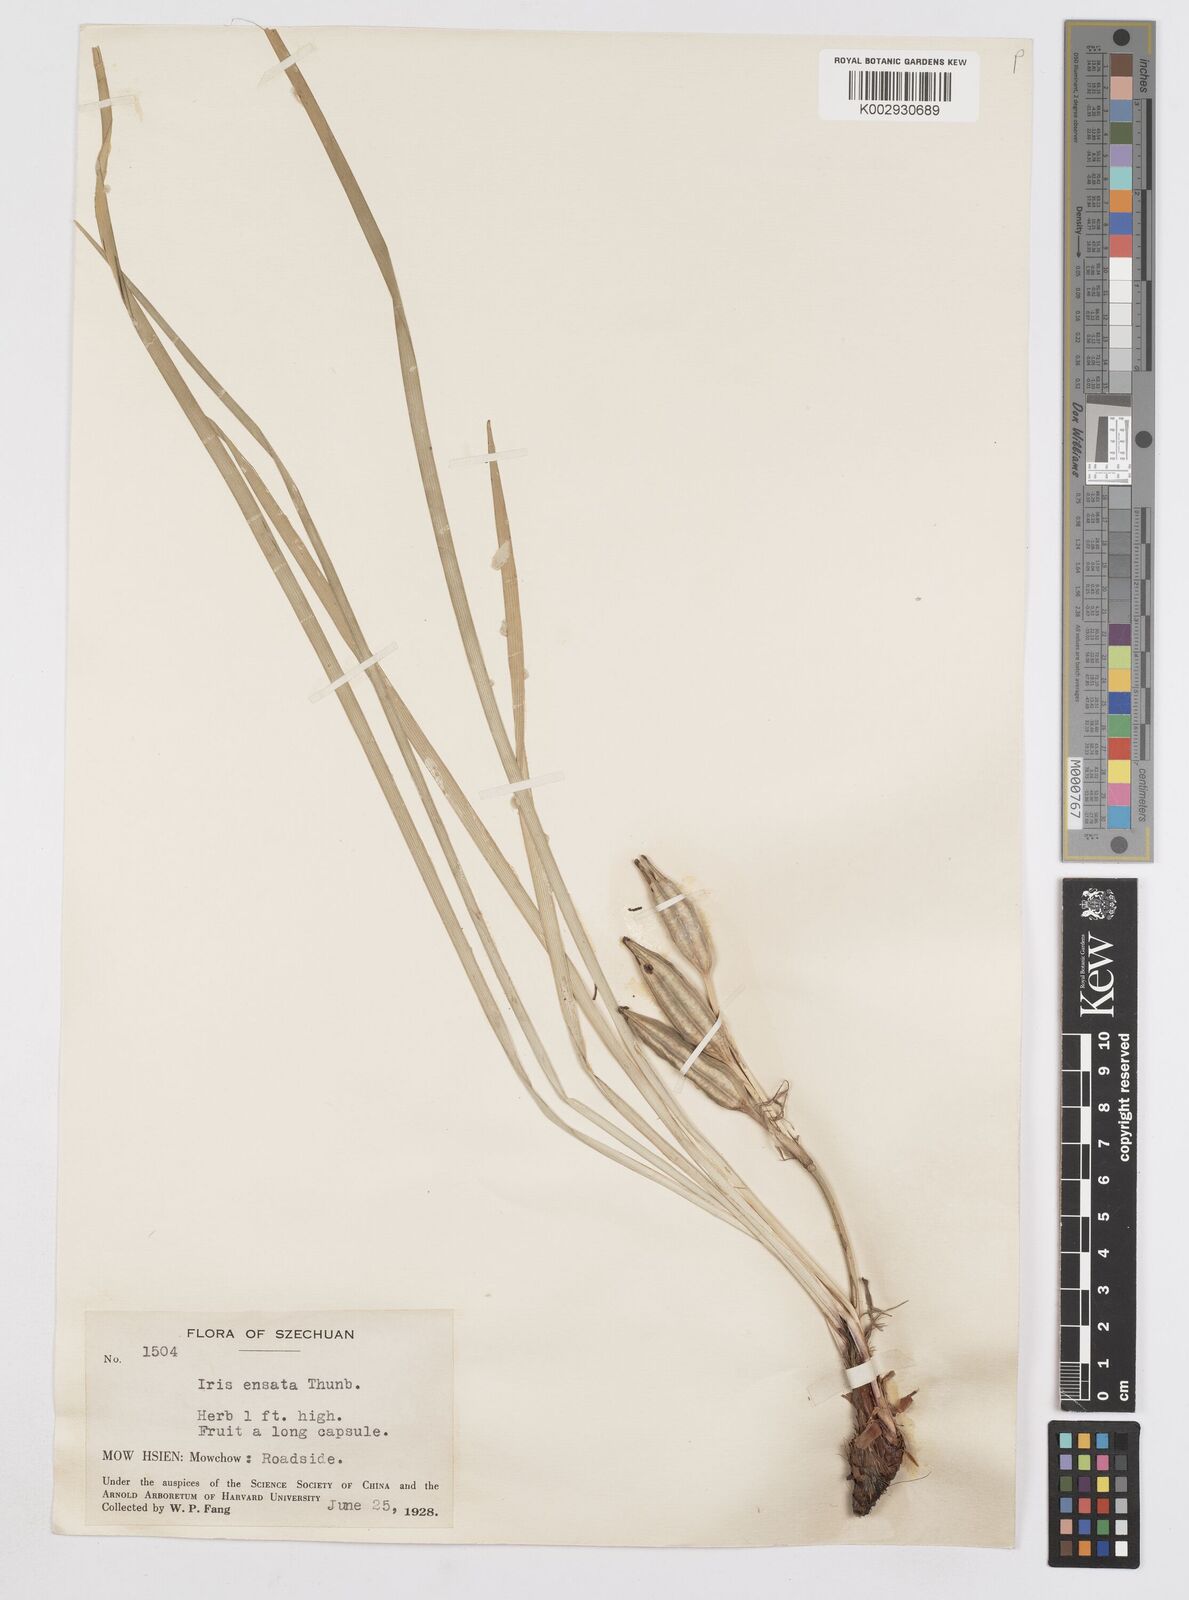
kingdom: Plantae
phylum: Tracheophyta
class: Liliopsida
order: Asparagales
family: Iridaceae
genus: Iris
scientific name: Iris ensata
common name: Beaked iris
